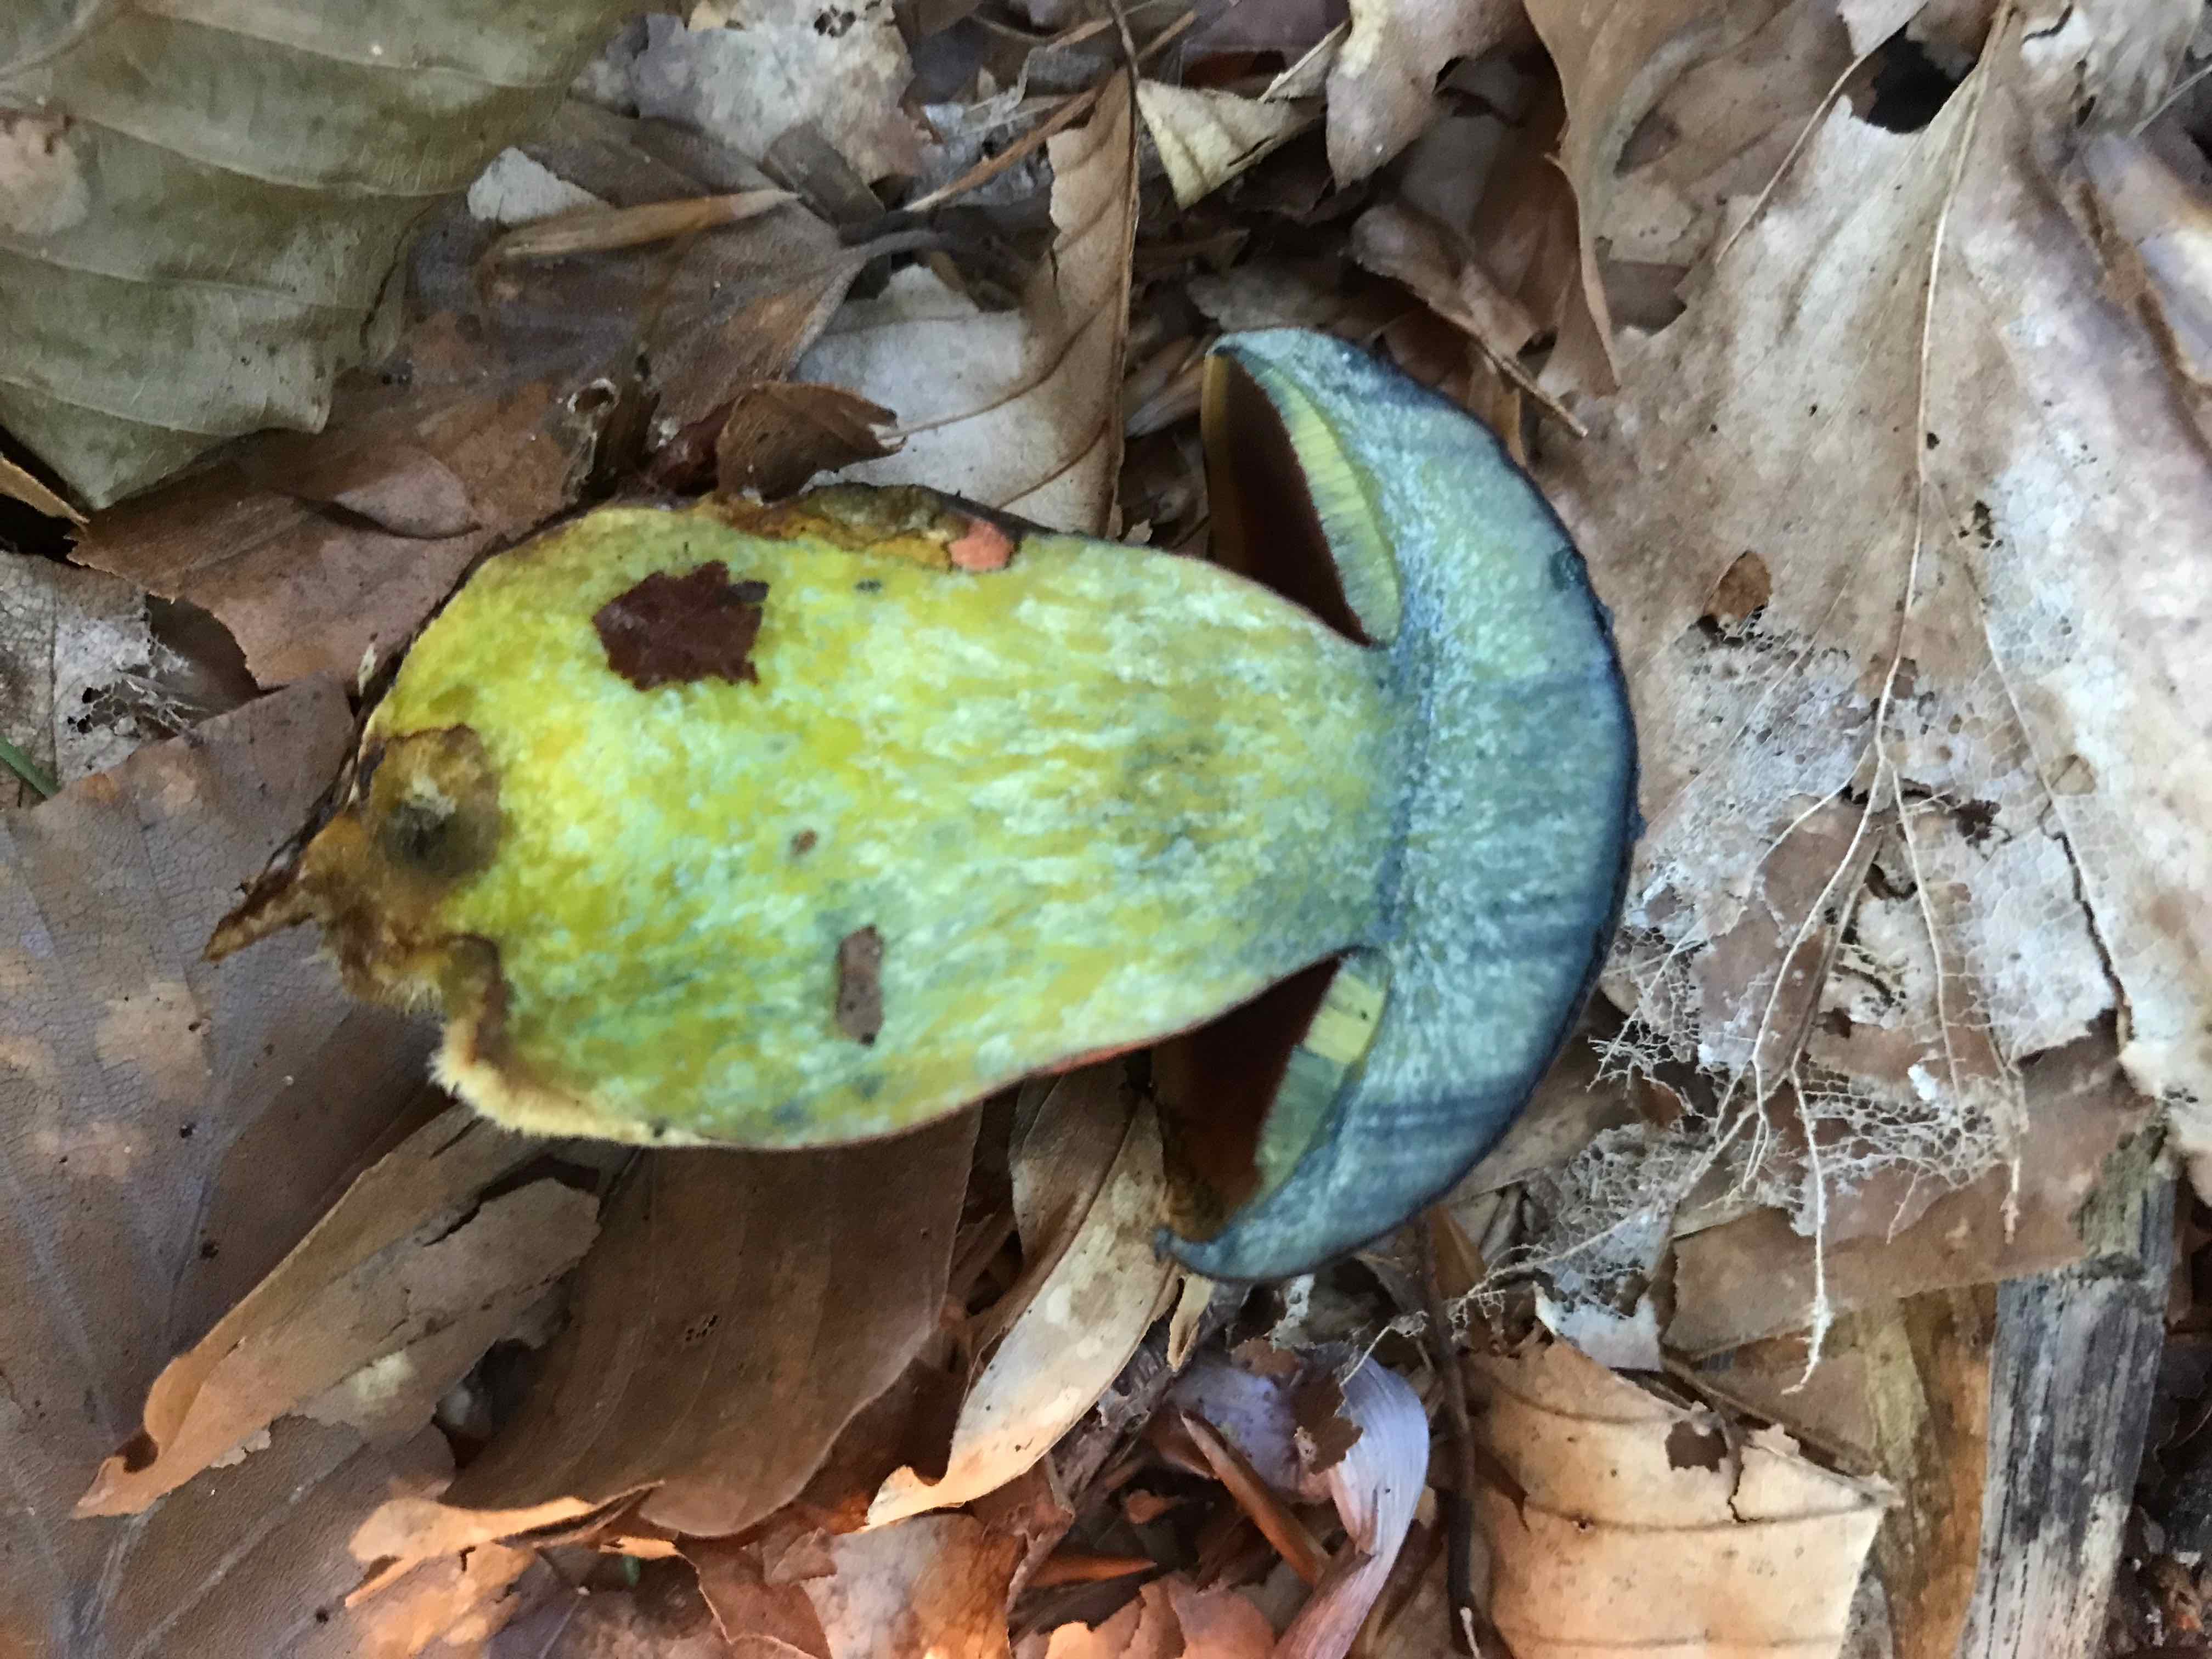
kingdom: Fungi
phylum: Basidiomycota
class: Agaricomycetes
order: Boletales
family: Boletaceae
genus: Neoboletus
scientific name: Neoboletus erythropus
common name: punktstokket indigorørhat
